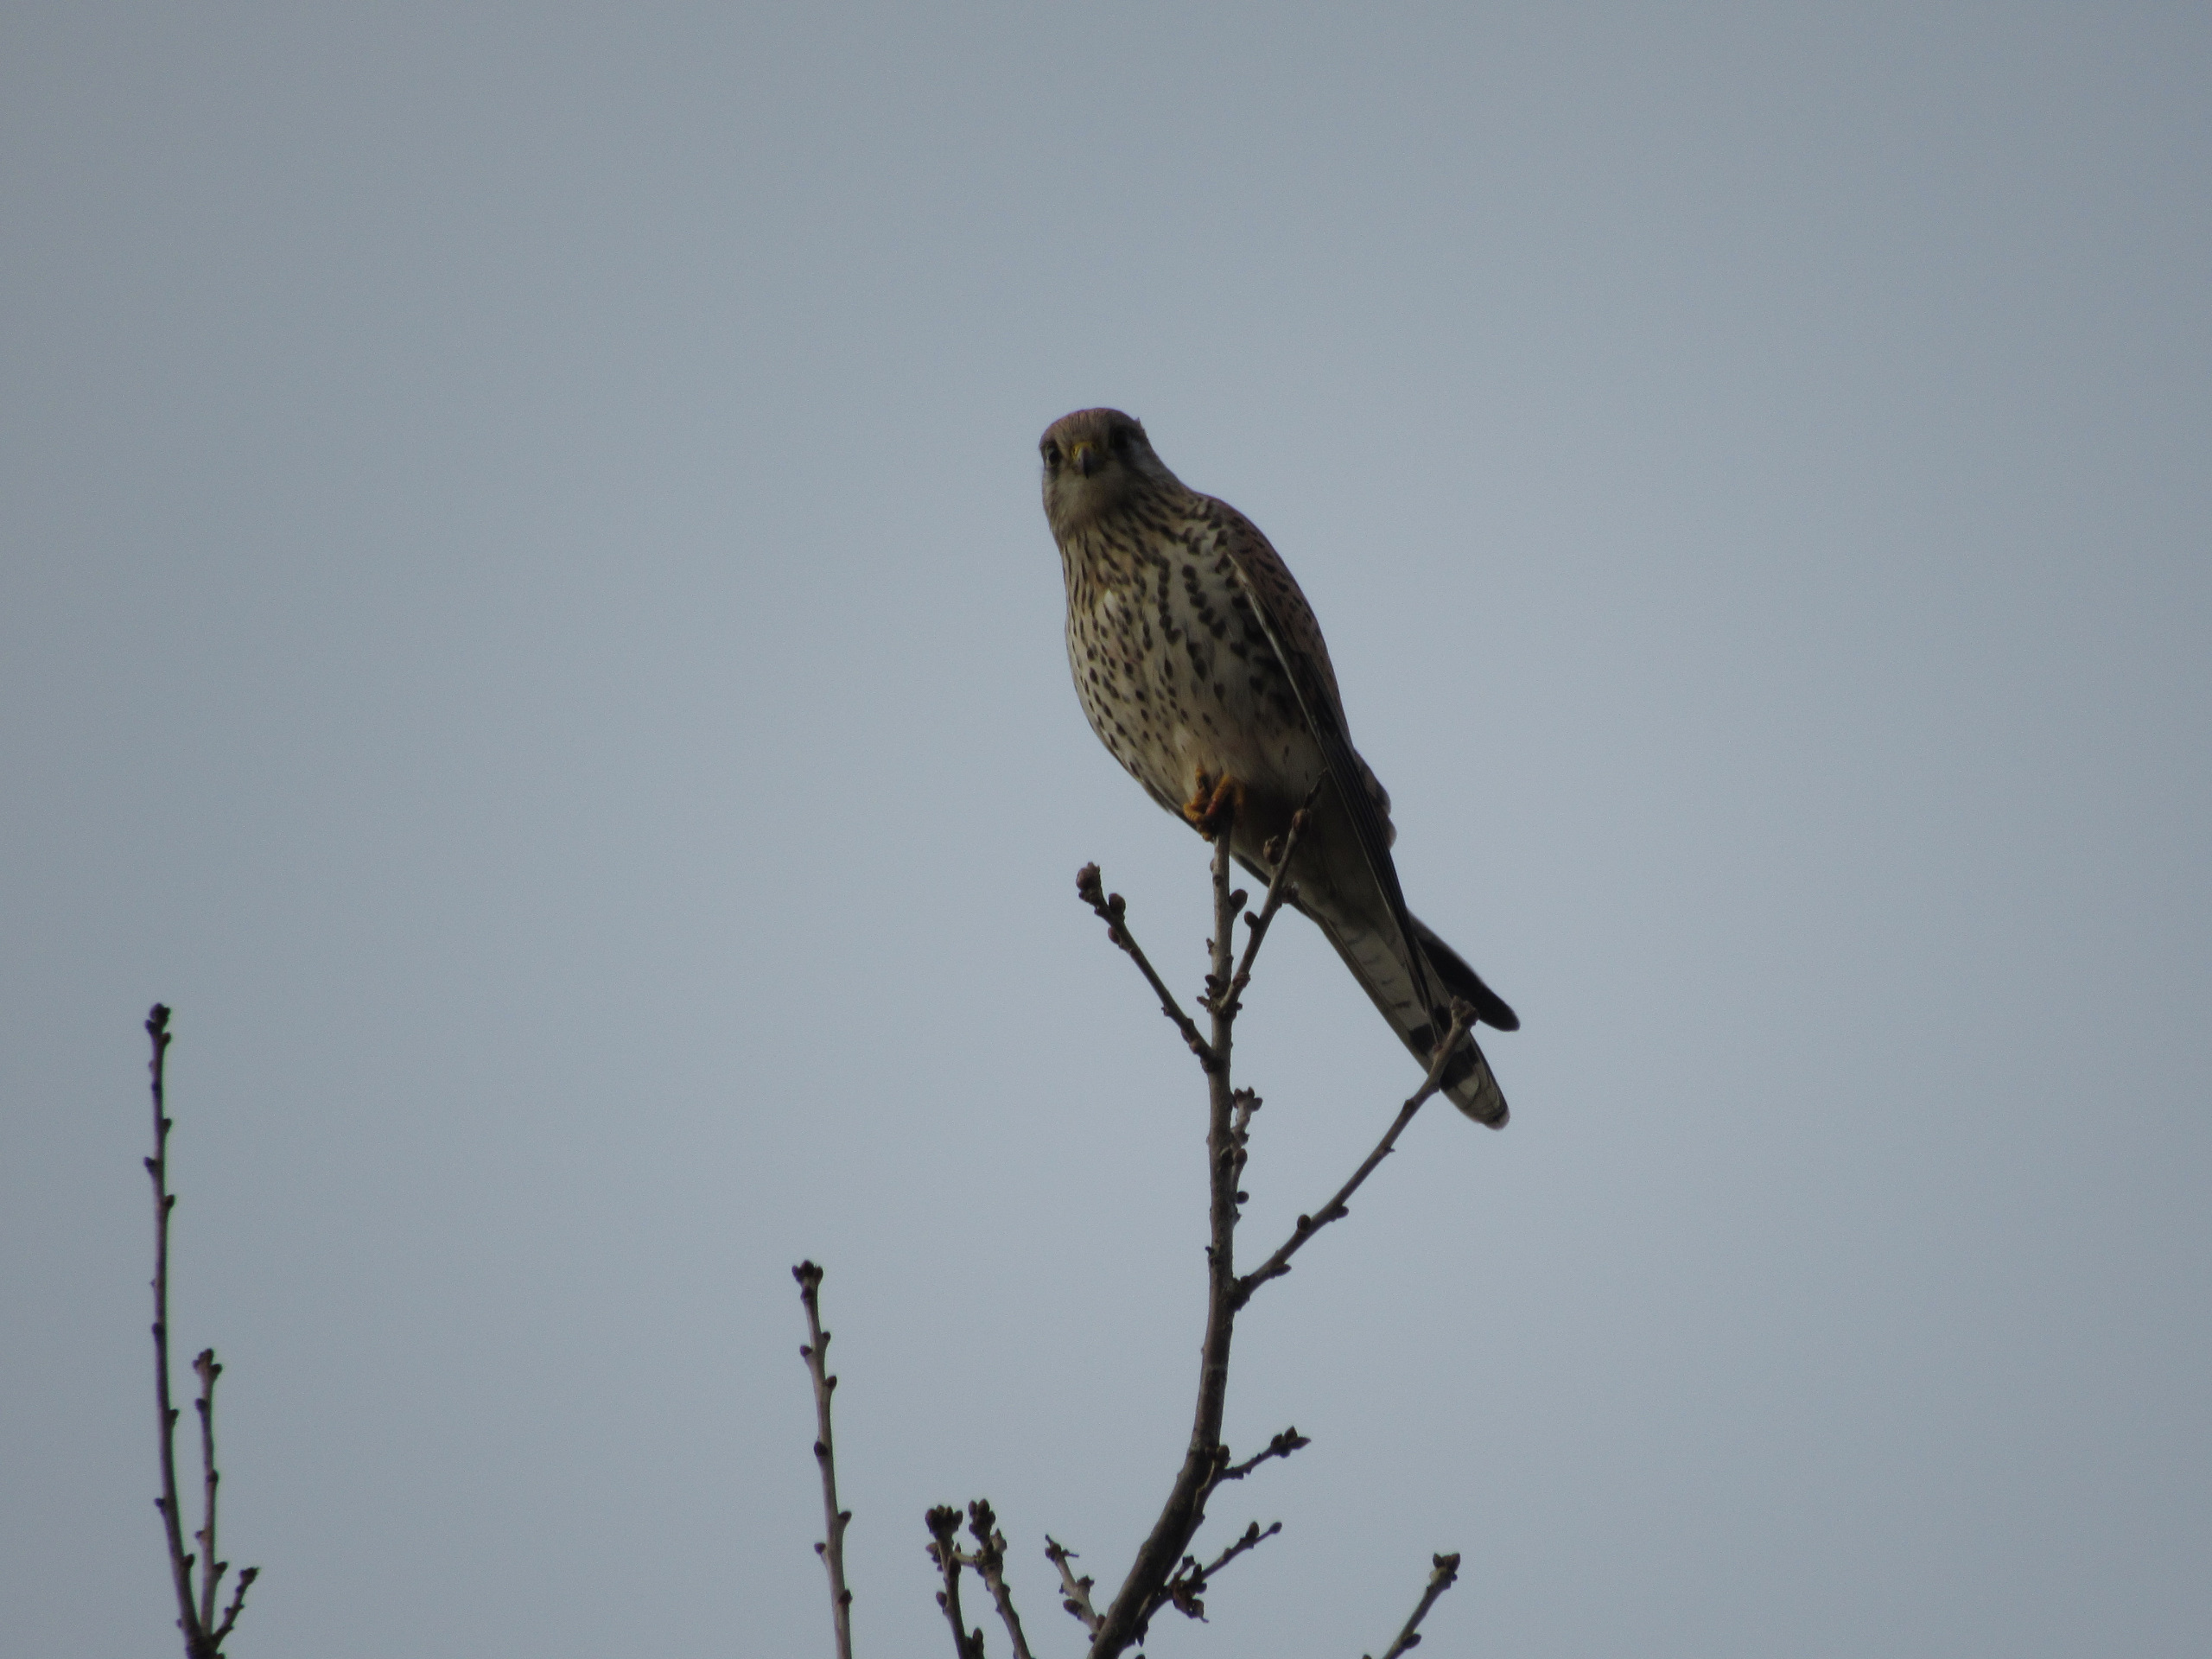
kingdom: Animalia
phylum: Chordata
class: Aves
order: Falconiformes
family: Falconidae
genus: Falco
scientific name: Falco tinnunculus
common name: Tårnfalk
